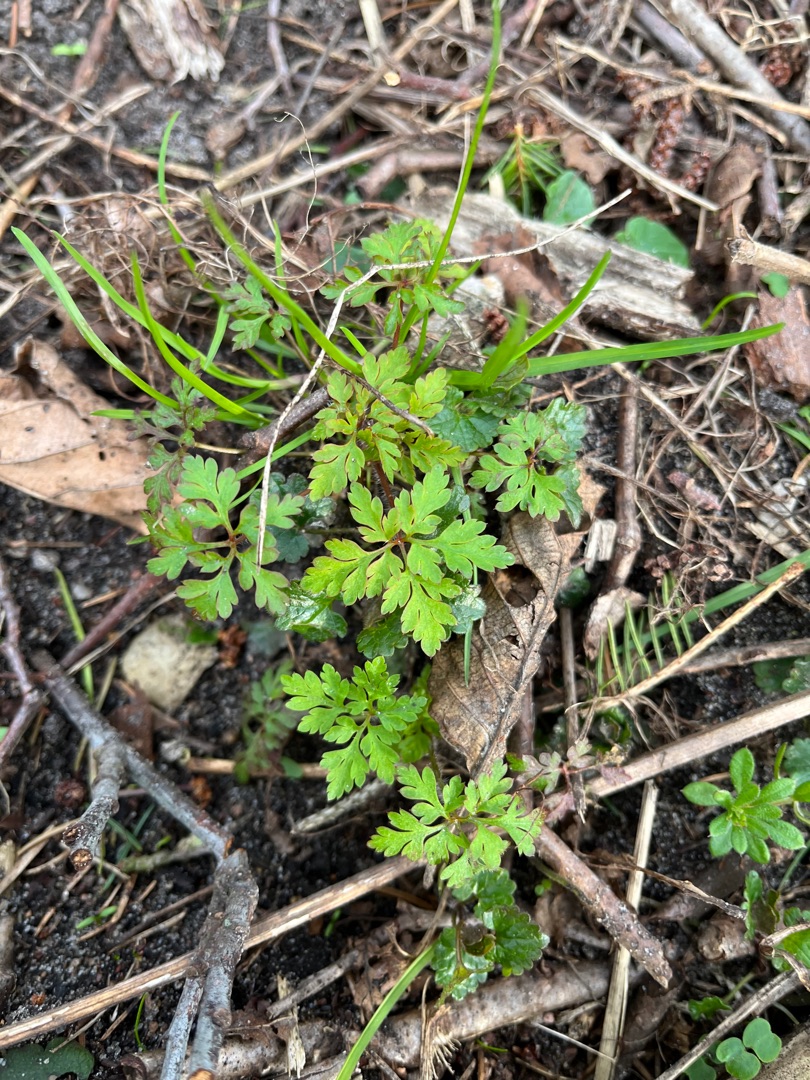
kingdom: Plantae
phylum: Tracheophyta
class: Magnoliopsida
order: Geraniales
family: Geraniaceae
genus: Geranium
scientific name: Geranium robertianum
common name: Stinkende storkenæb
